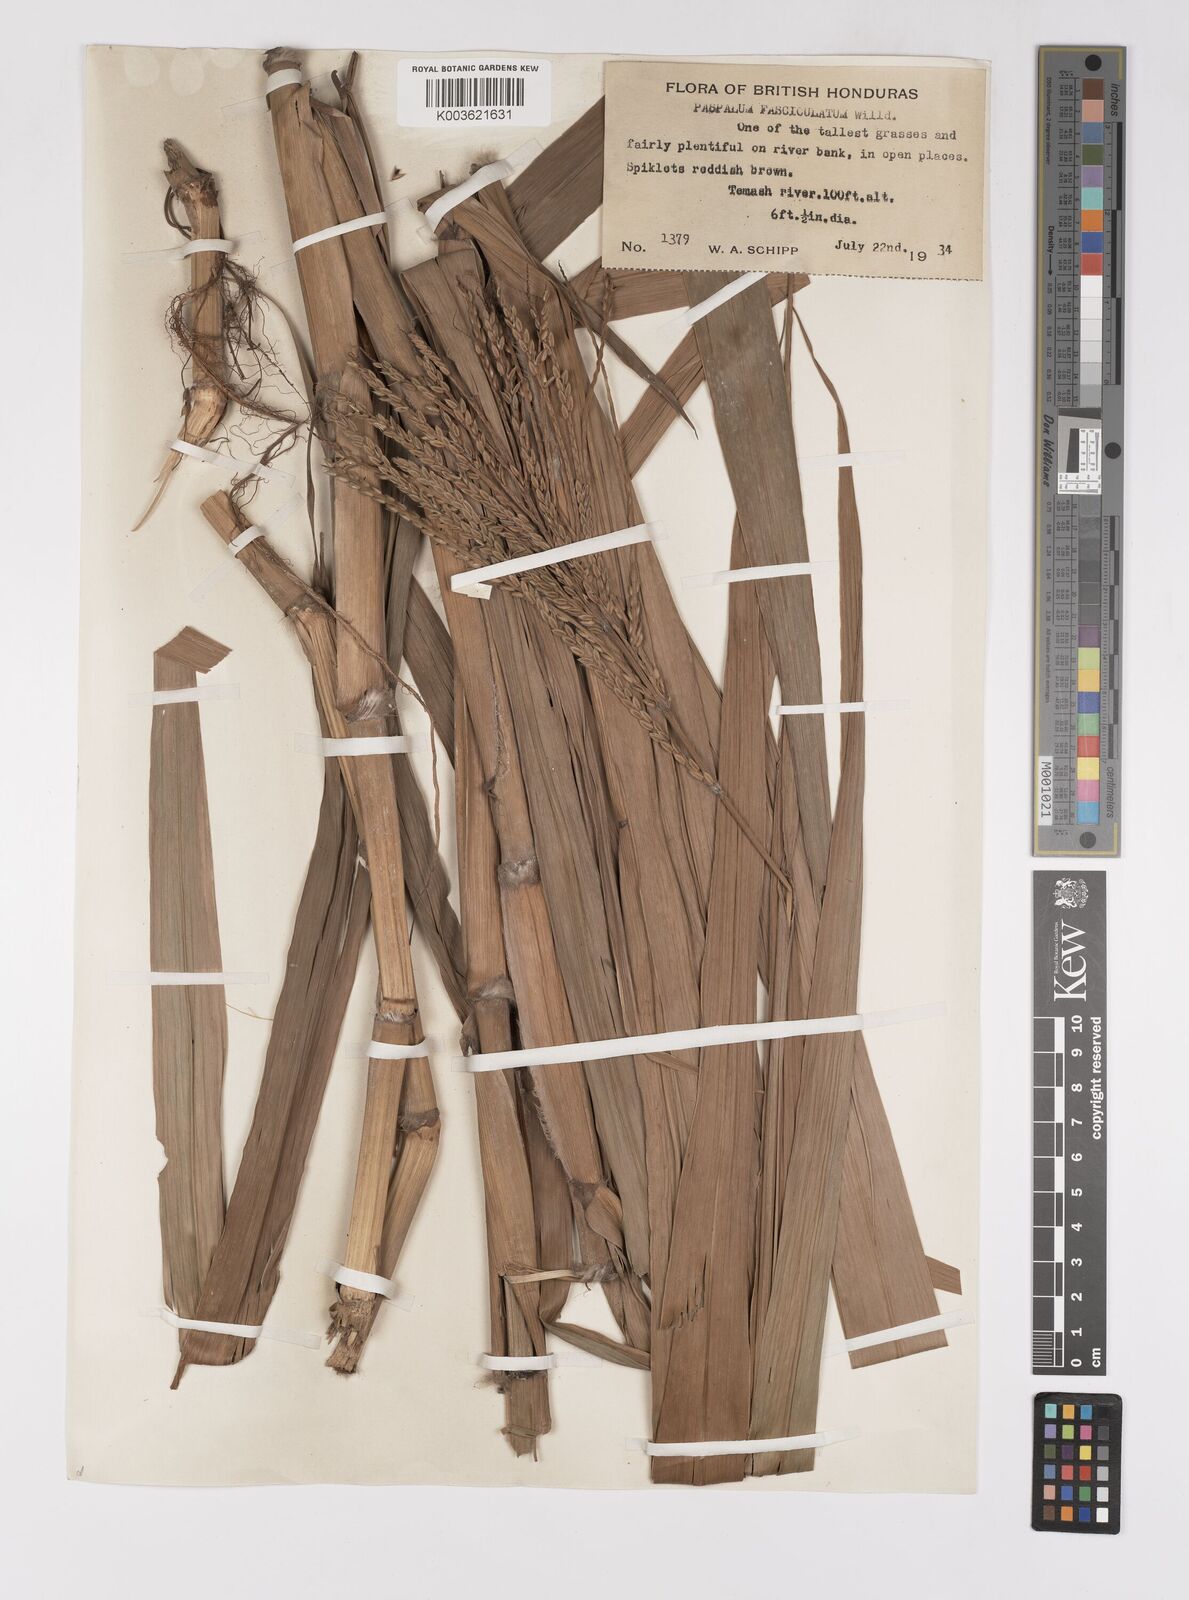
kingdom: Plantae
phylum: Tracheophyta
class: Liliopsida
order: Poales
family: Poaceae
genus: Paspalum
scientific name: Paspalum fasciculatum
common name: Bamboo grass
